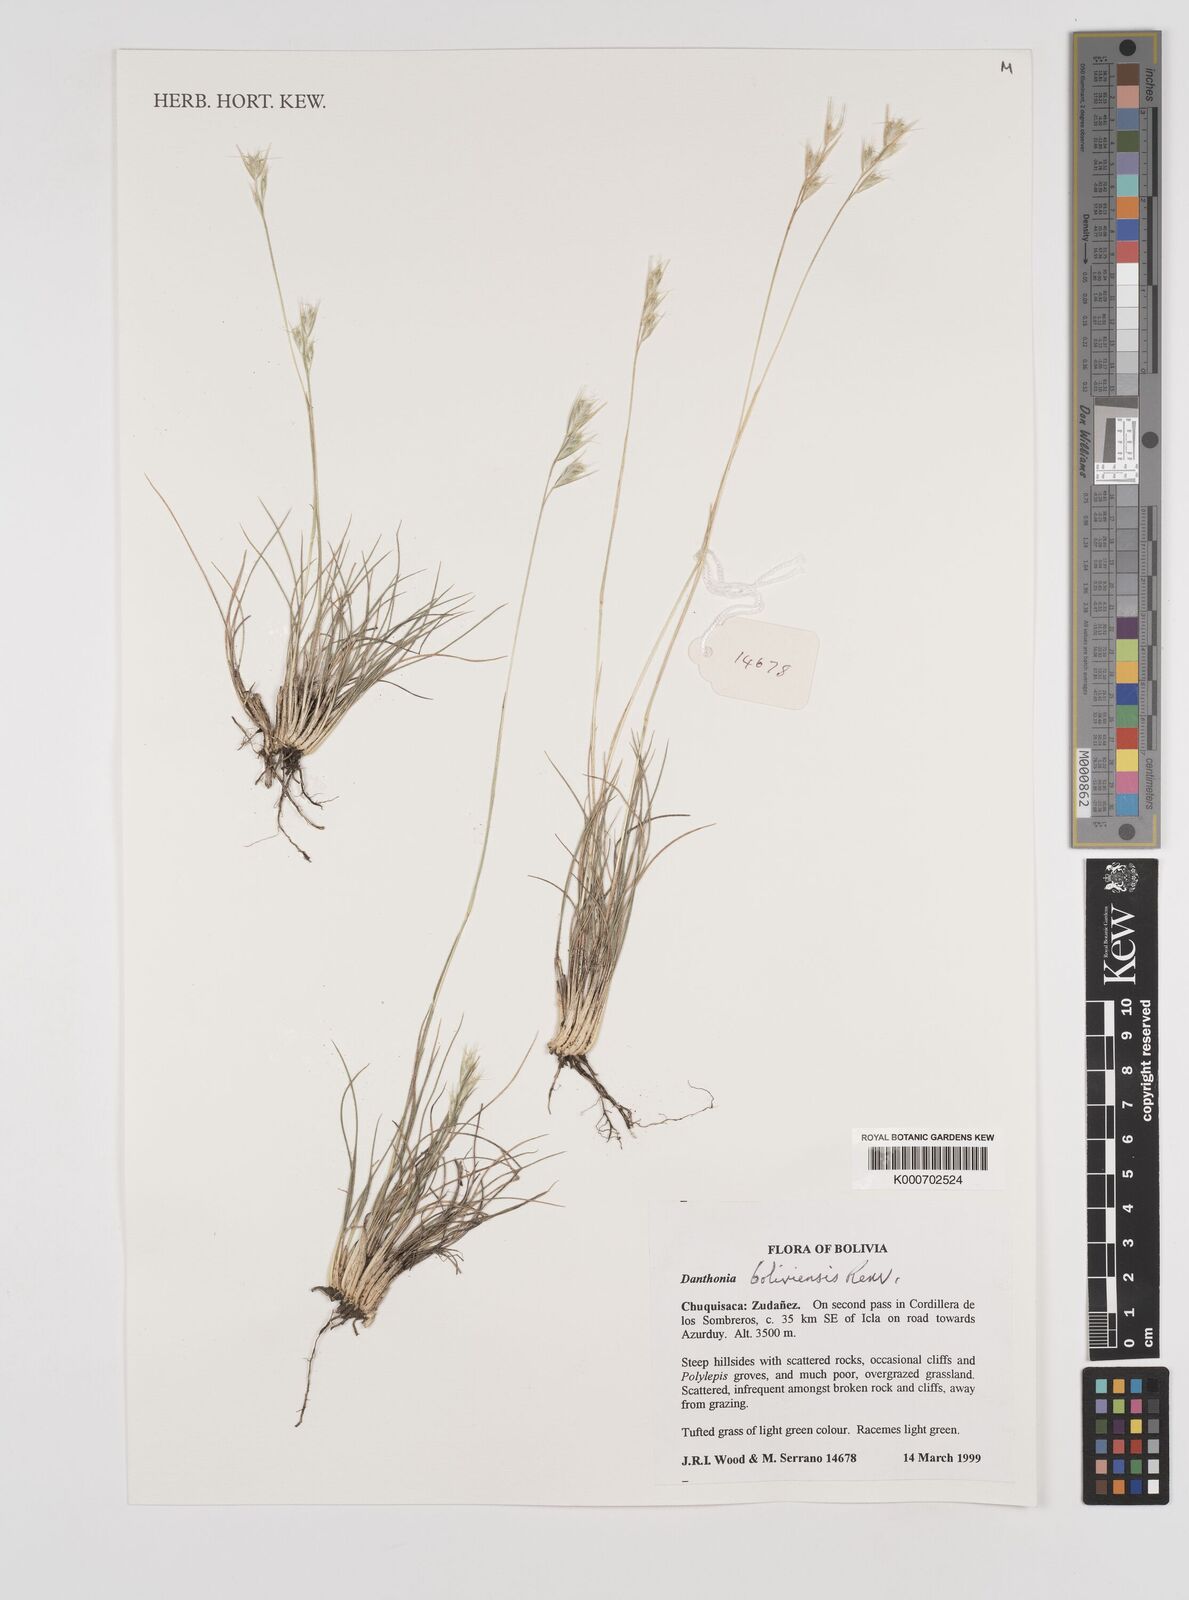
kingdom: Plantae
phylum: Tracheophyta
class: Liliopsida
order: Poales
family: Poaceae
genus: Danthonia
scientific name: Danthonia boliviensis
